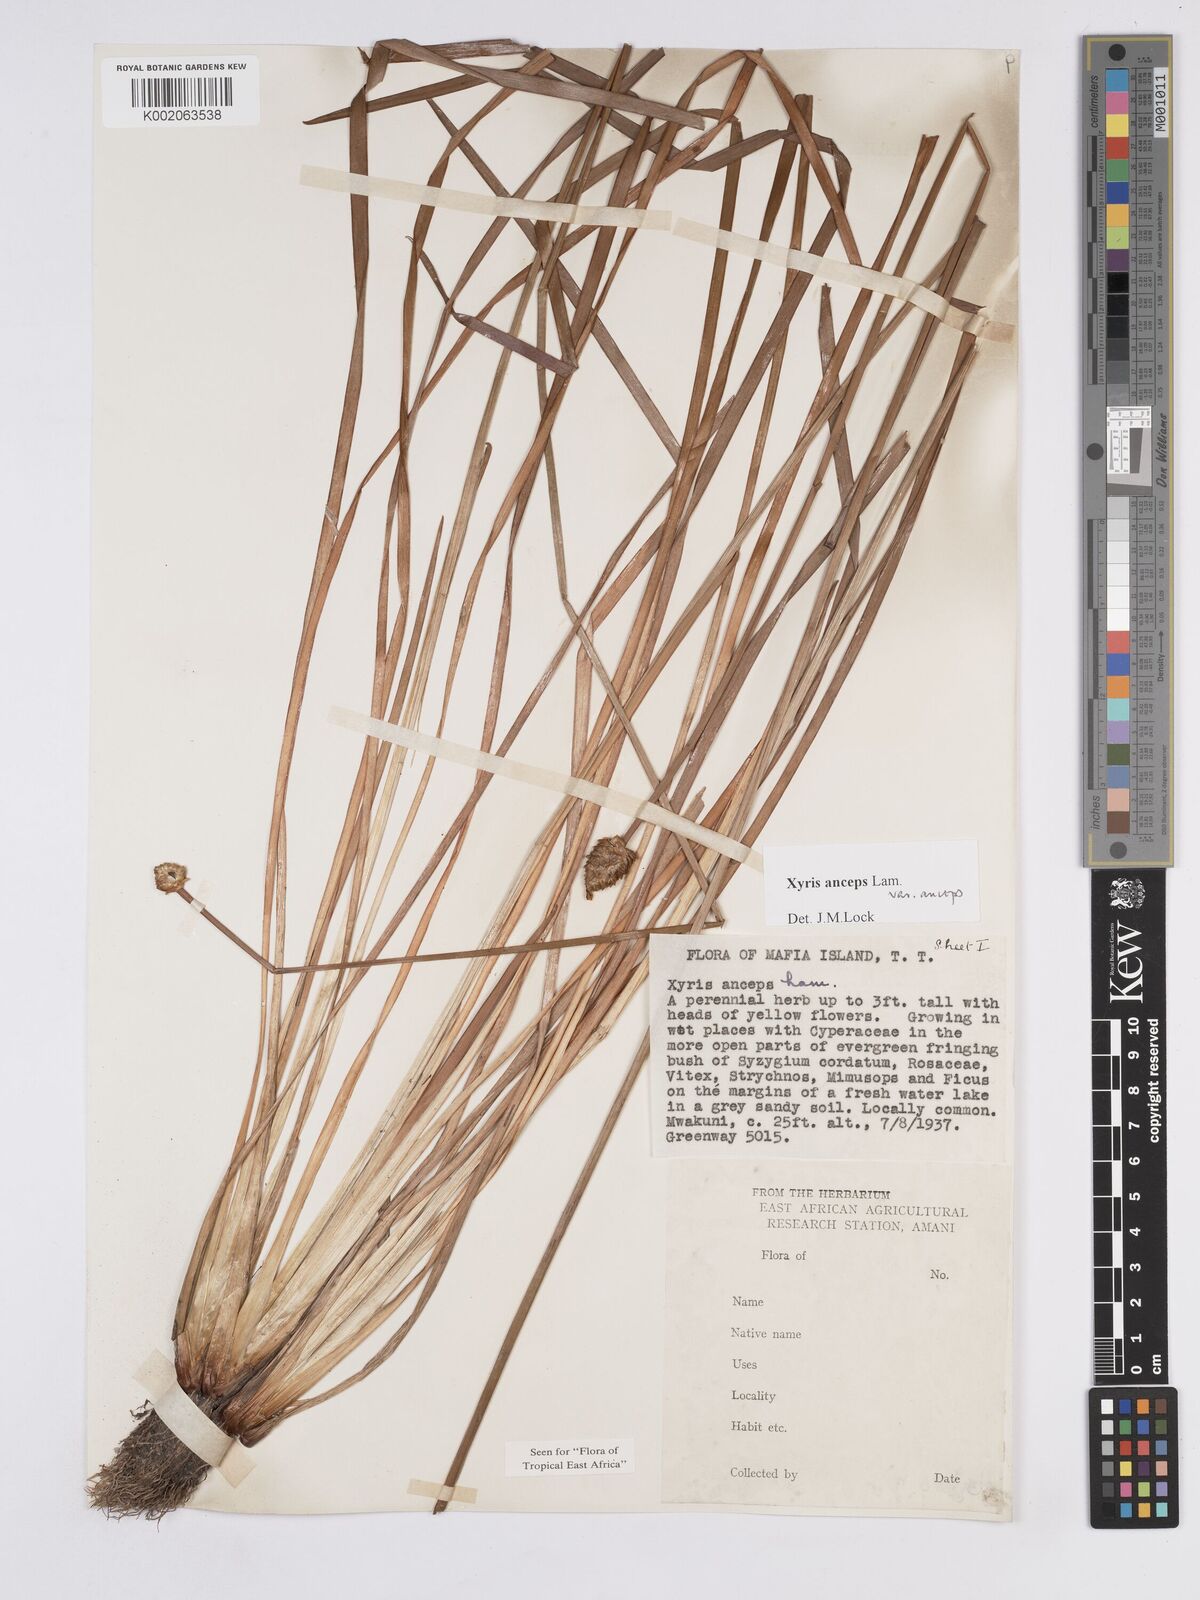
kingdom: Plantae
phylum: Tracheophyta
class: Liliopsida
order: Poales
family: Xyridaceae
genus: Xyris
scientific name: Xyris anceps
